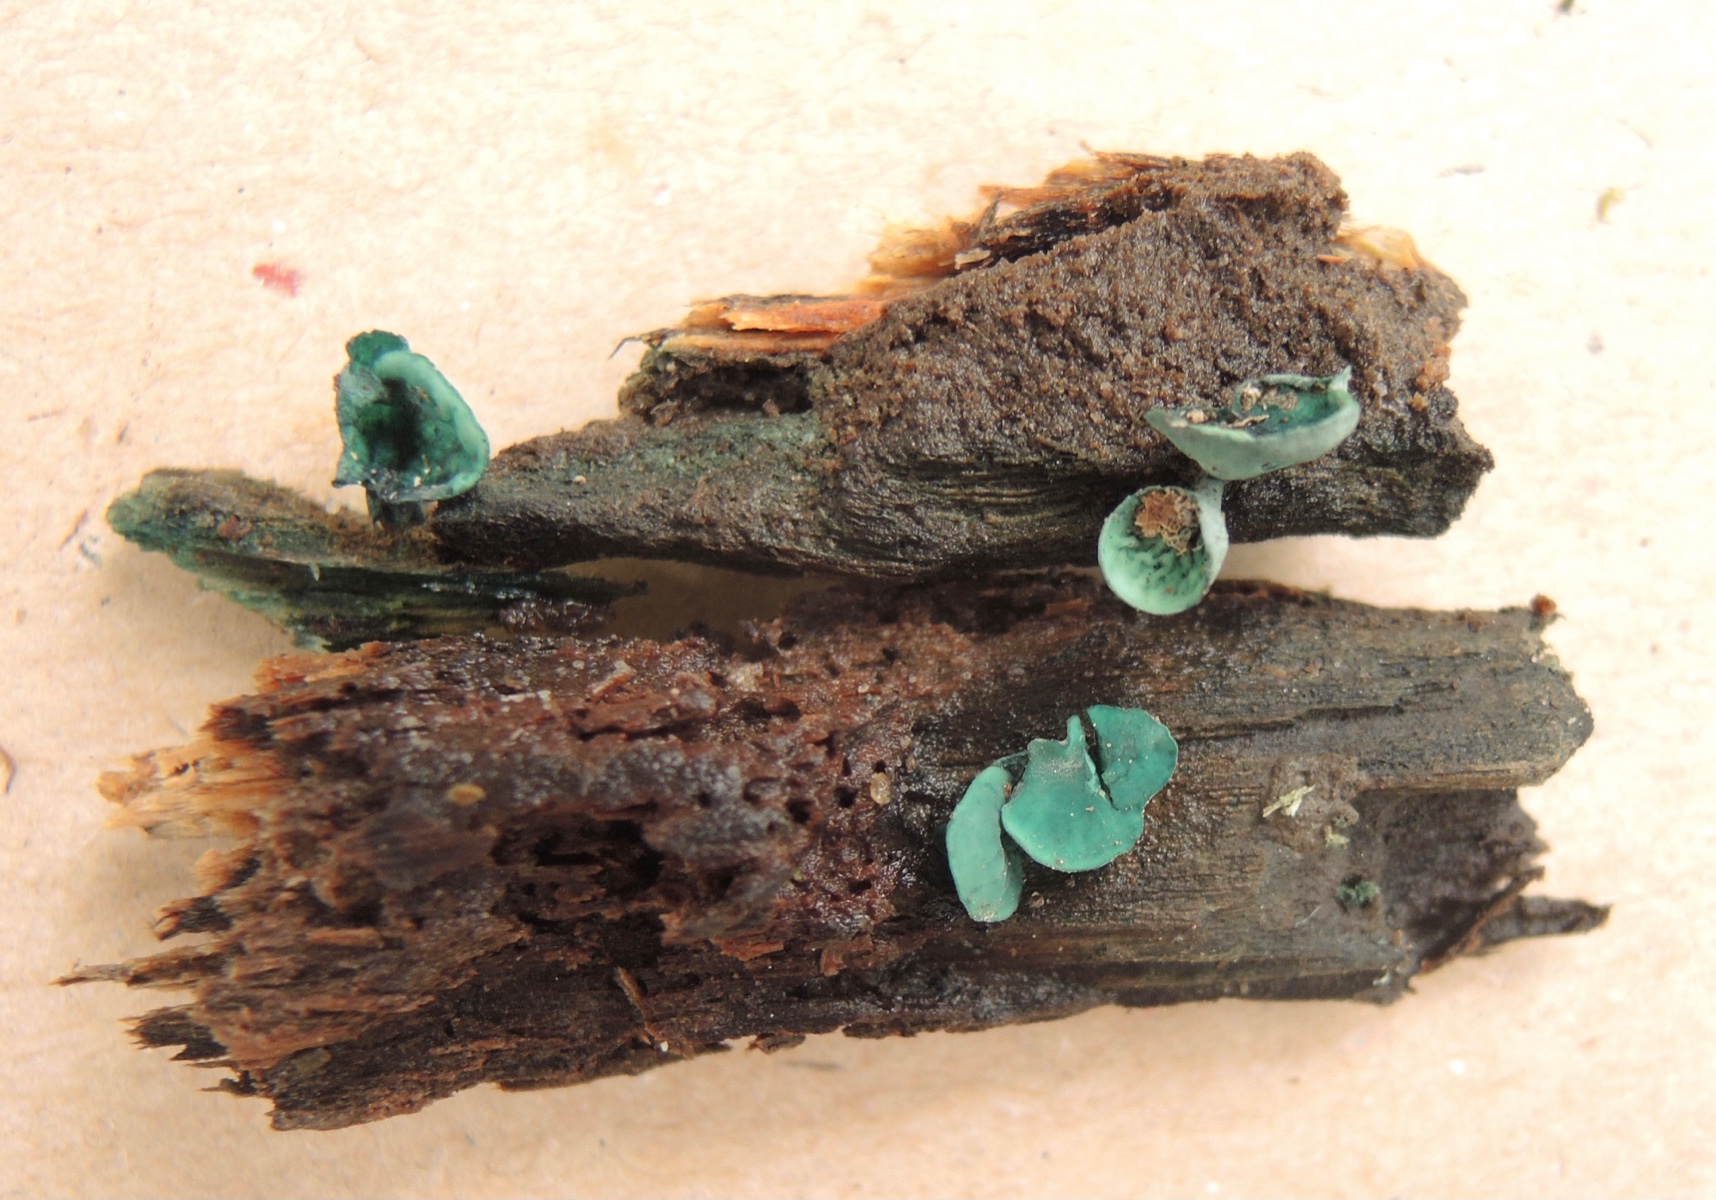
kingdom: Fungi
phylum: Ascomycota
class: Leotiomycetes
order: Helotiales
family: Chlorociboriaceae
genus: Chlorociboria
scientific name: Chlorociboria aeruginascens
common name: almindelig grønskive
